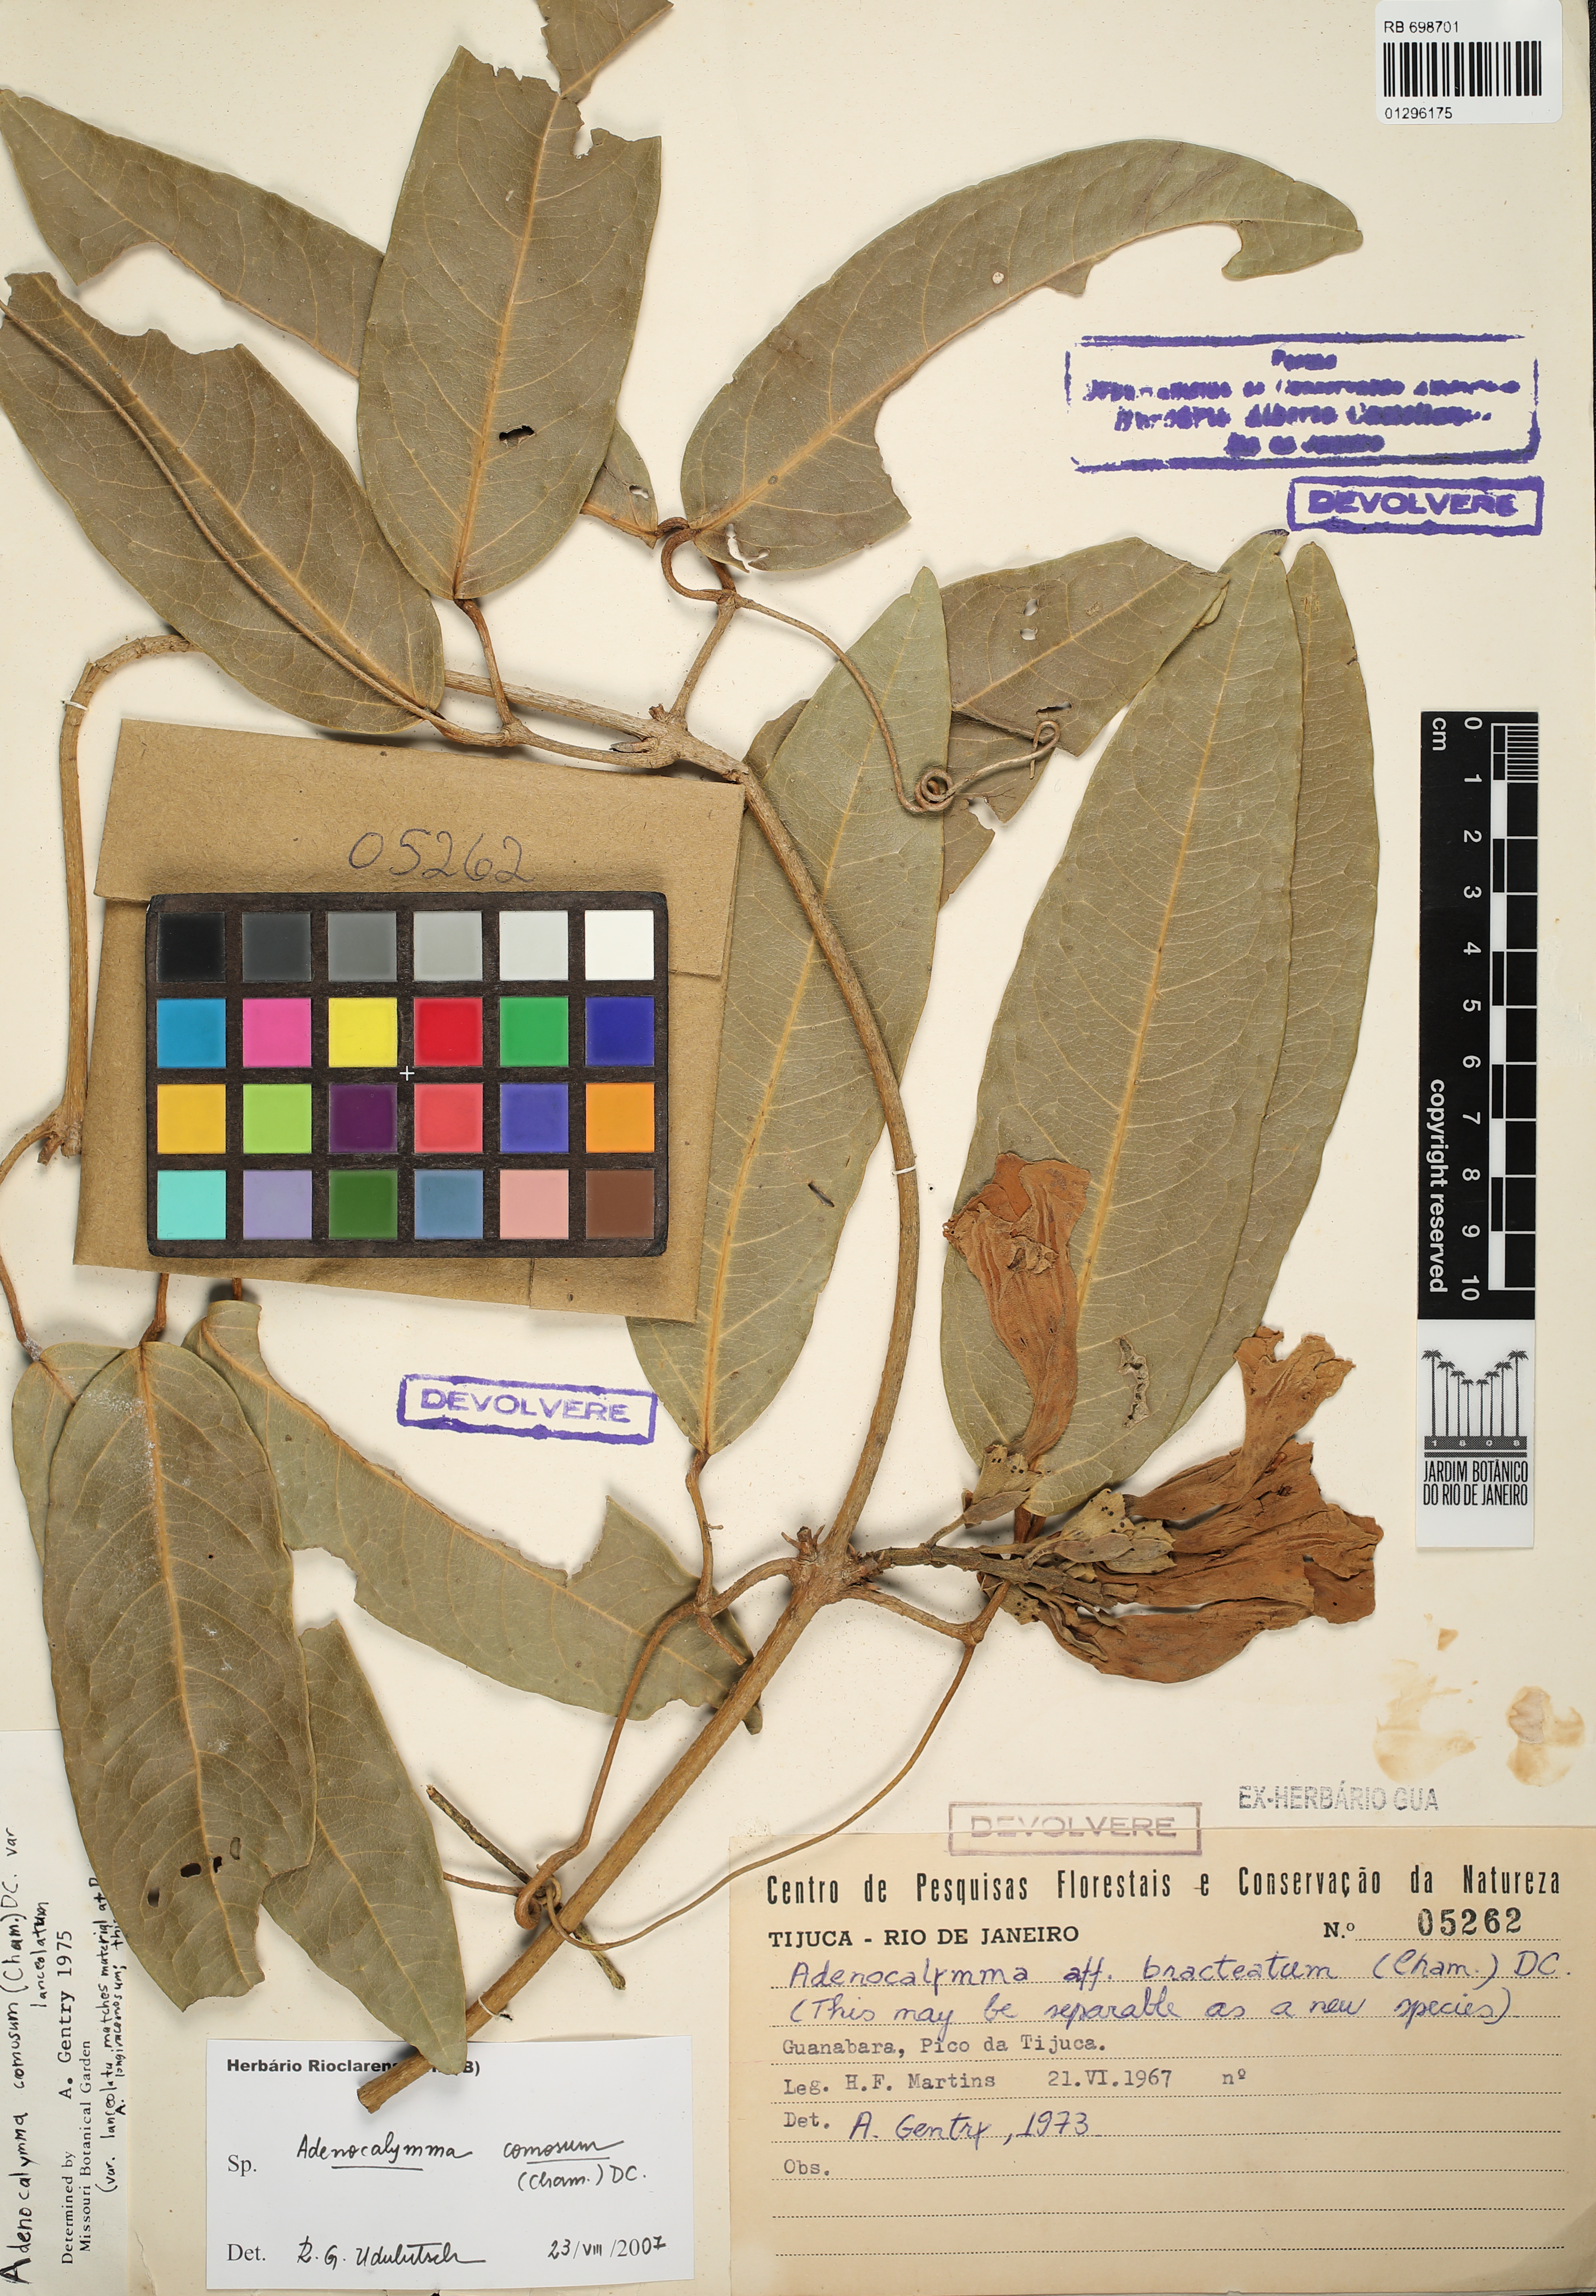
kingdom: Plantae
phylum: Tracheophyta
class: Magnoliopsida
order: Lamiales
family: Bignoniaceae
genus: Adenocalymma
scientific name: Adenocalymma acutissimum
